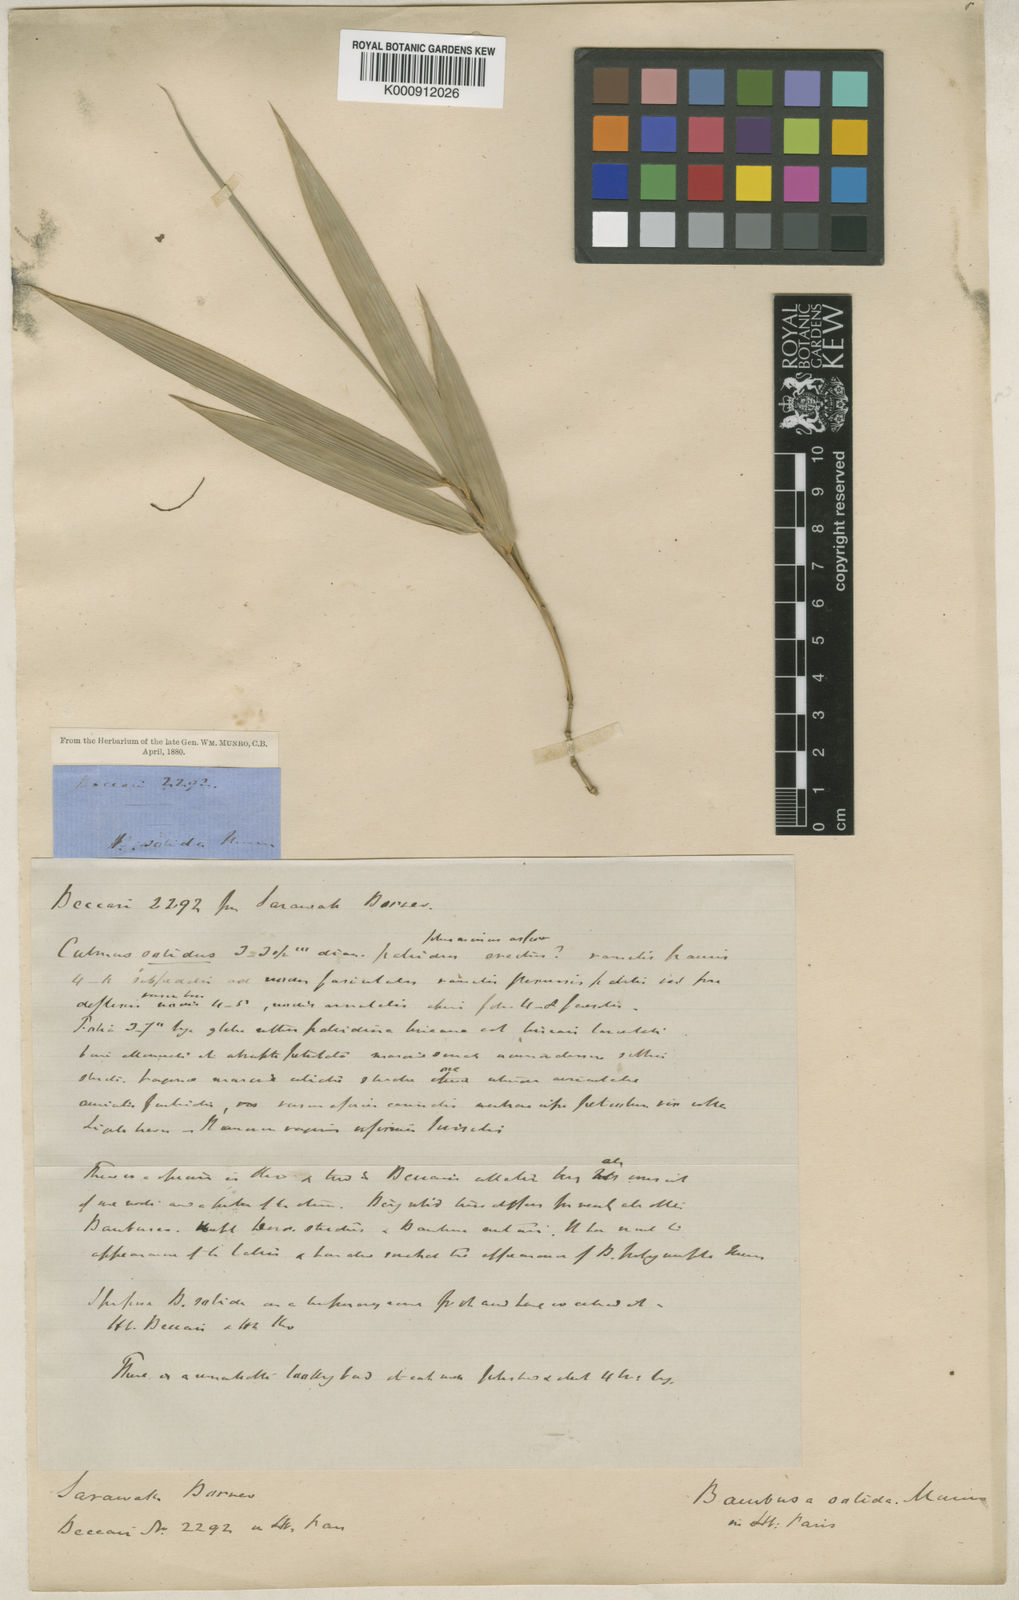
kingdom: Plantae
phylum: Tracheophyta
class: Liliopsida
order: Poales
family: Poaceae
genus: Dinochloa
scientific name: Dinochloa sipitangensis
